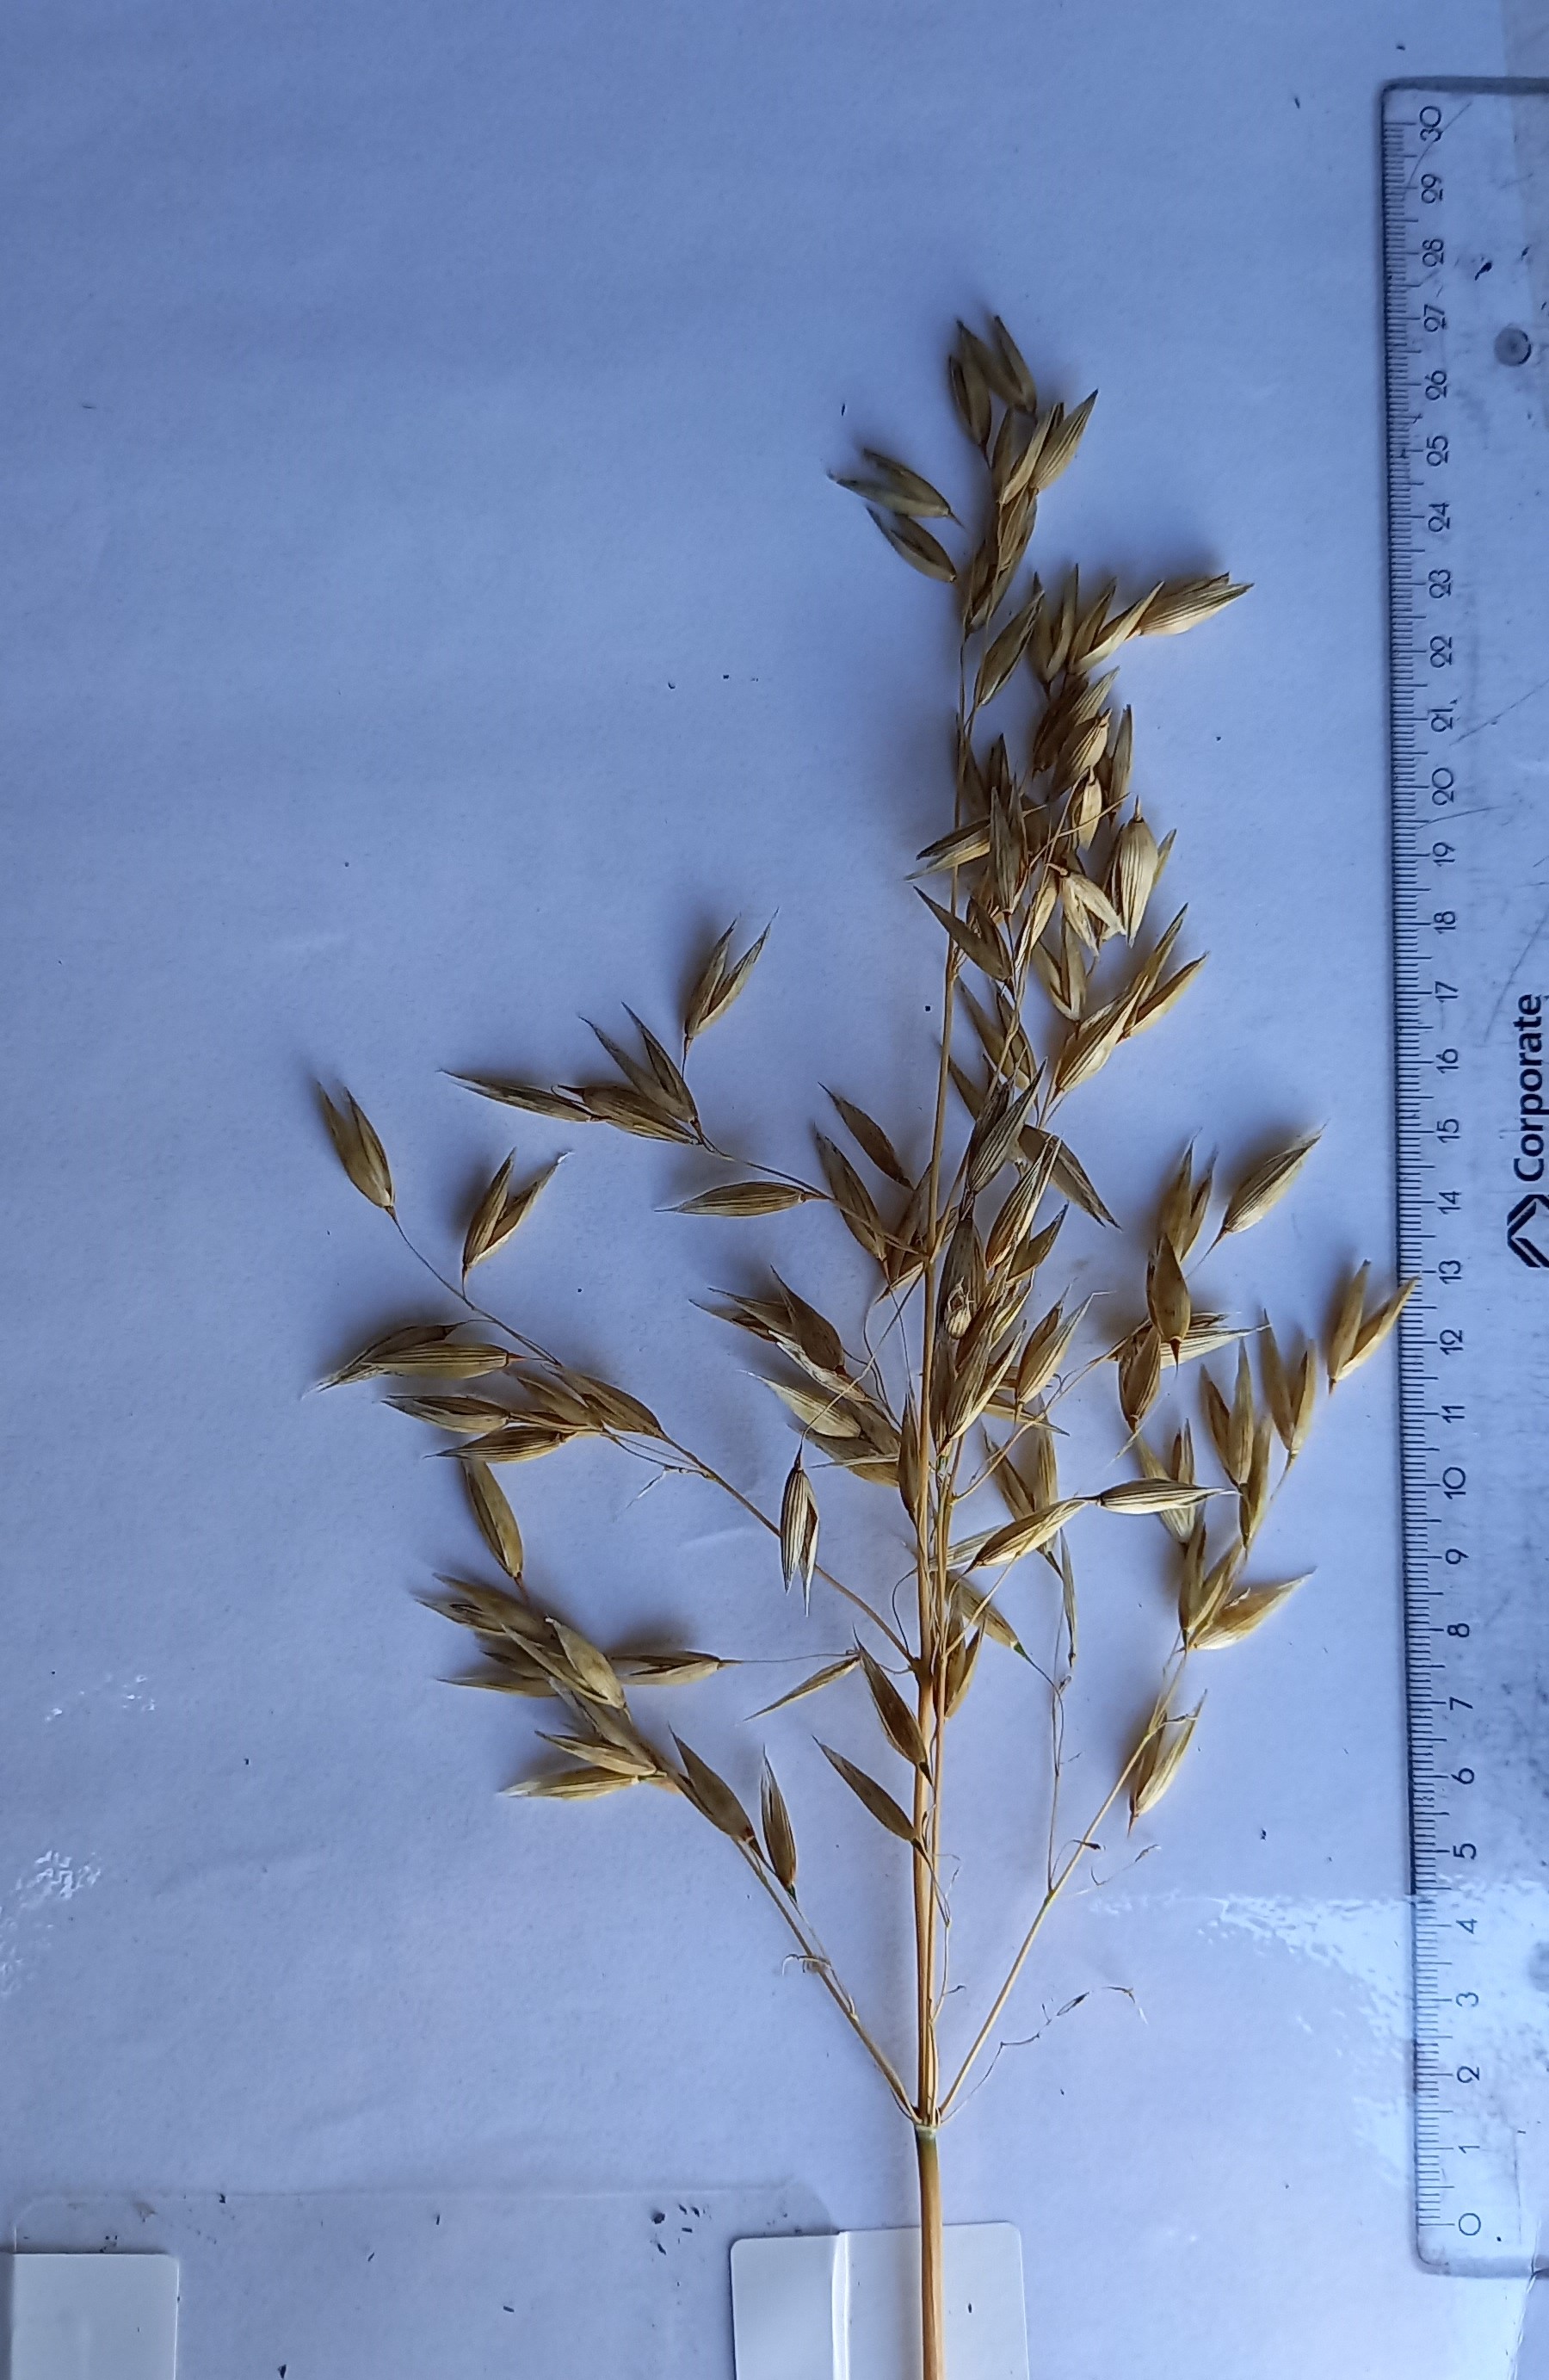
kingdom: Plantae
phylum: Tracheophyta
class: Liliopsida
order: Poales
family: Poaceae
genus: Avena
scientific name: Avena sativa
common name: Oat
